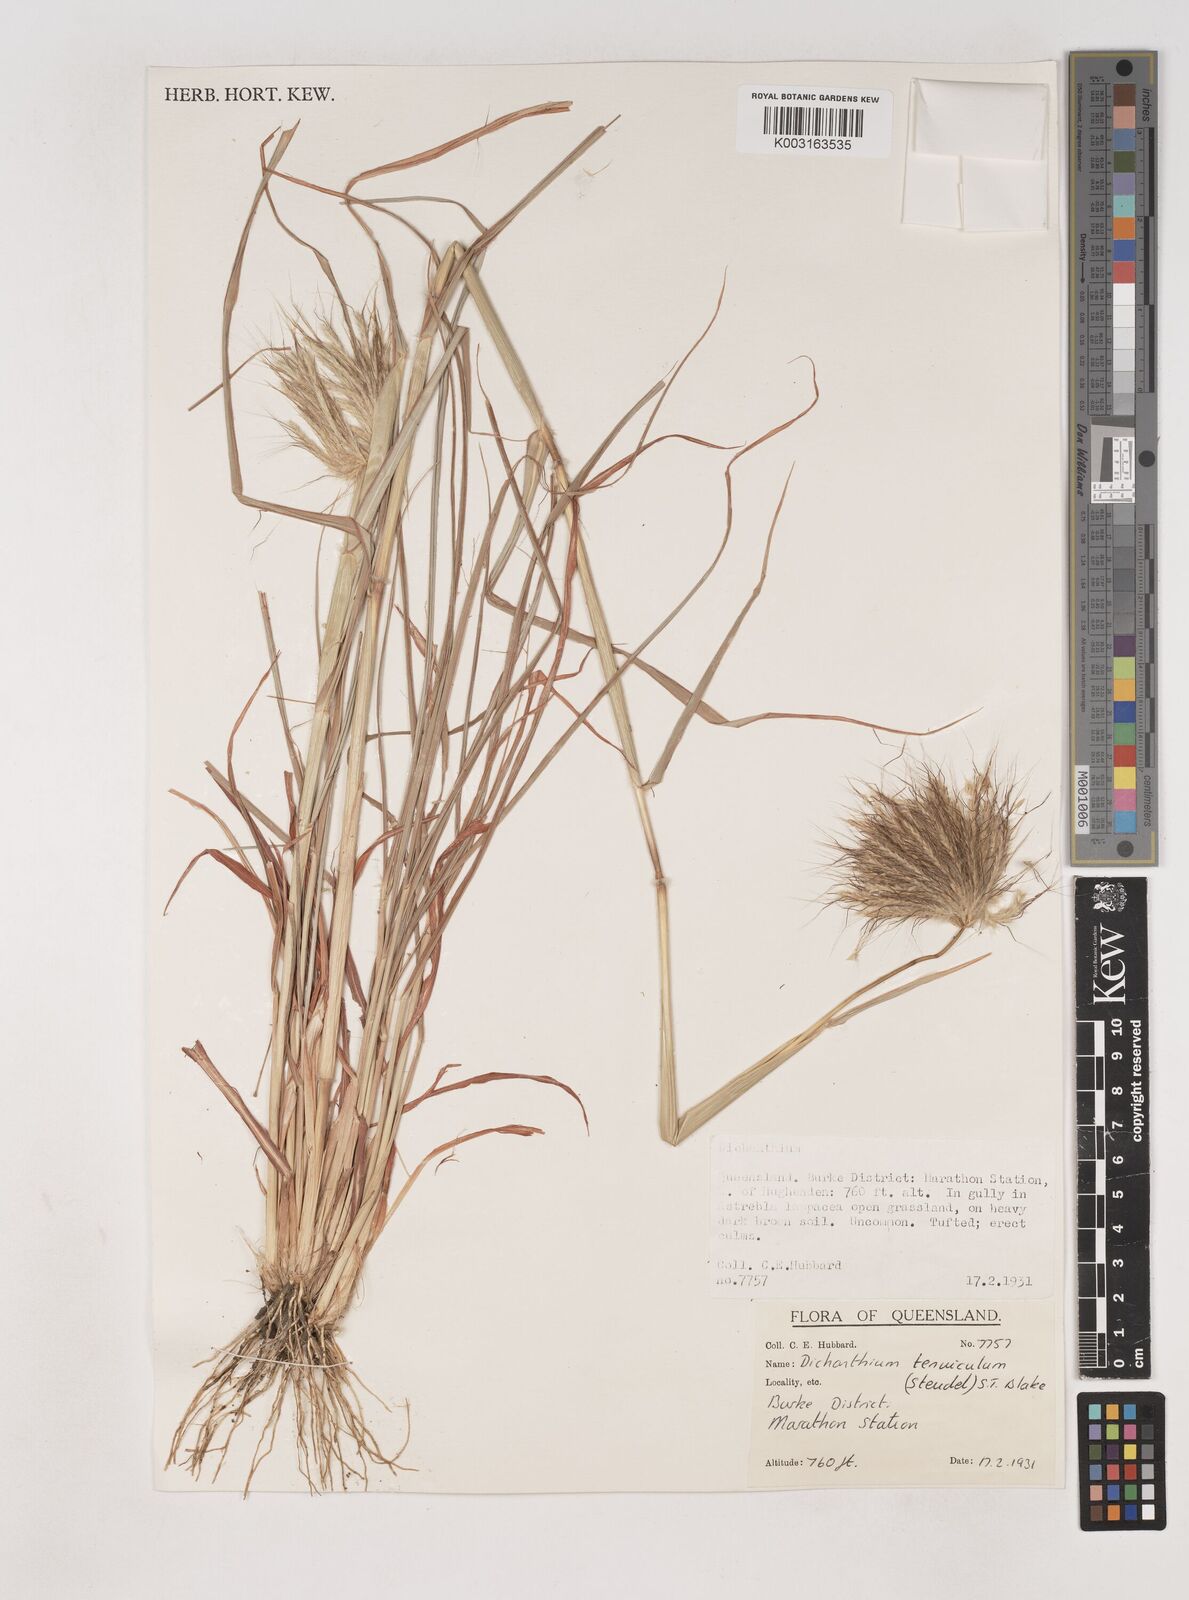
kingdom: Plantae
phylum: Tracheophyta
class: Liliopsida
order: Poales
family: Poaceae
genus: Dichanthium
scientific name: Dichanthium sericeum
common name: Silky bluestem
